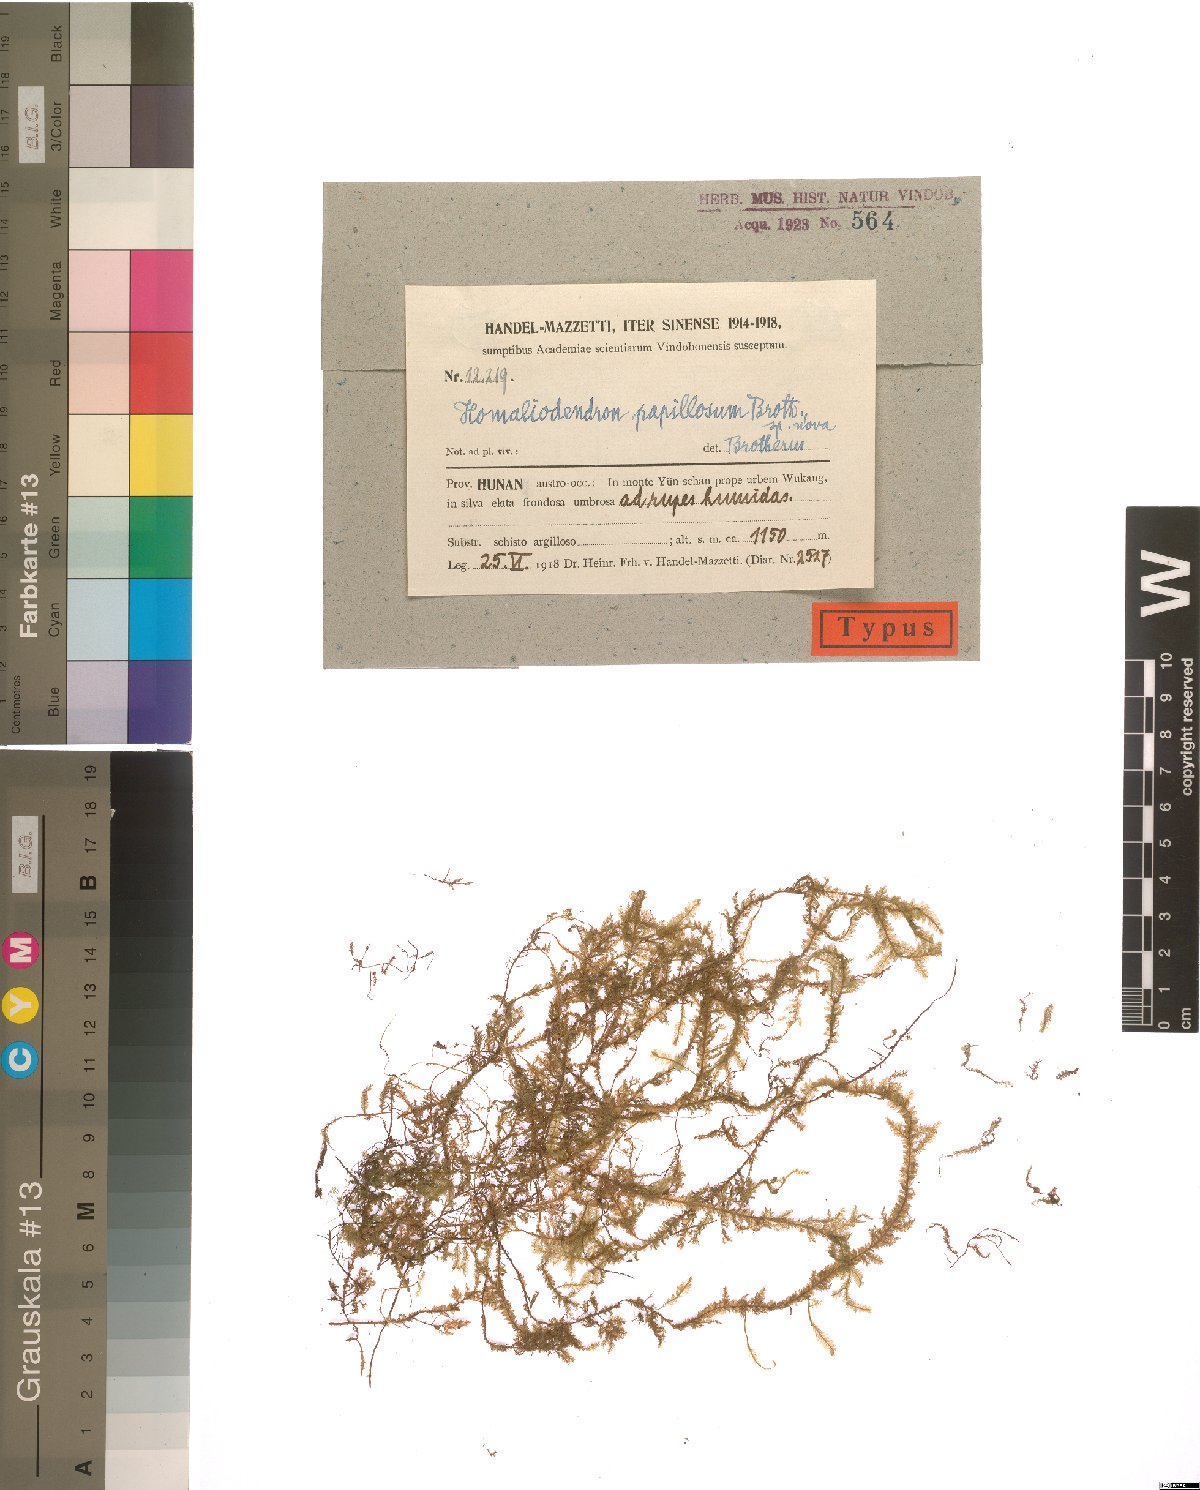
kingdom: Plantae
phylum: Bryophyta
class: Bryopsida
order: Hypnales
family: Neckeraceae
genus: Homaliodendron
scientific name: Homaliodendron papillosum
